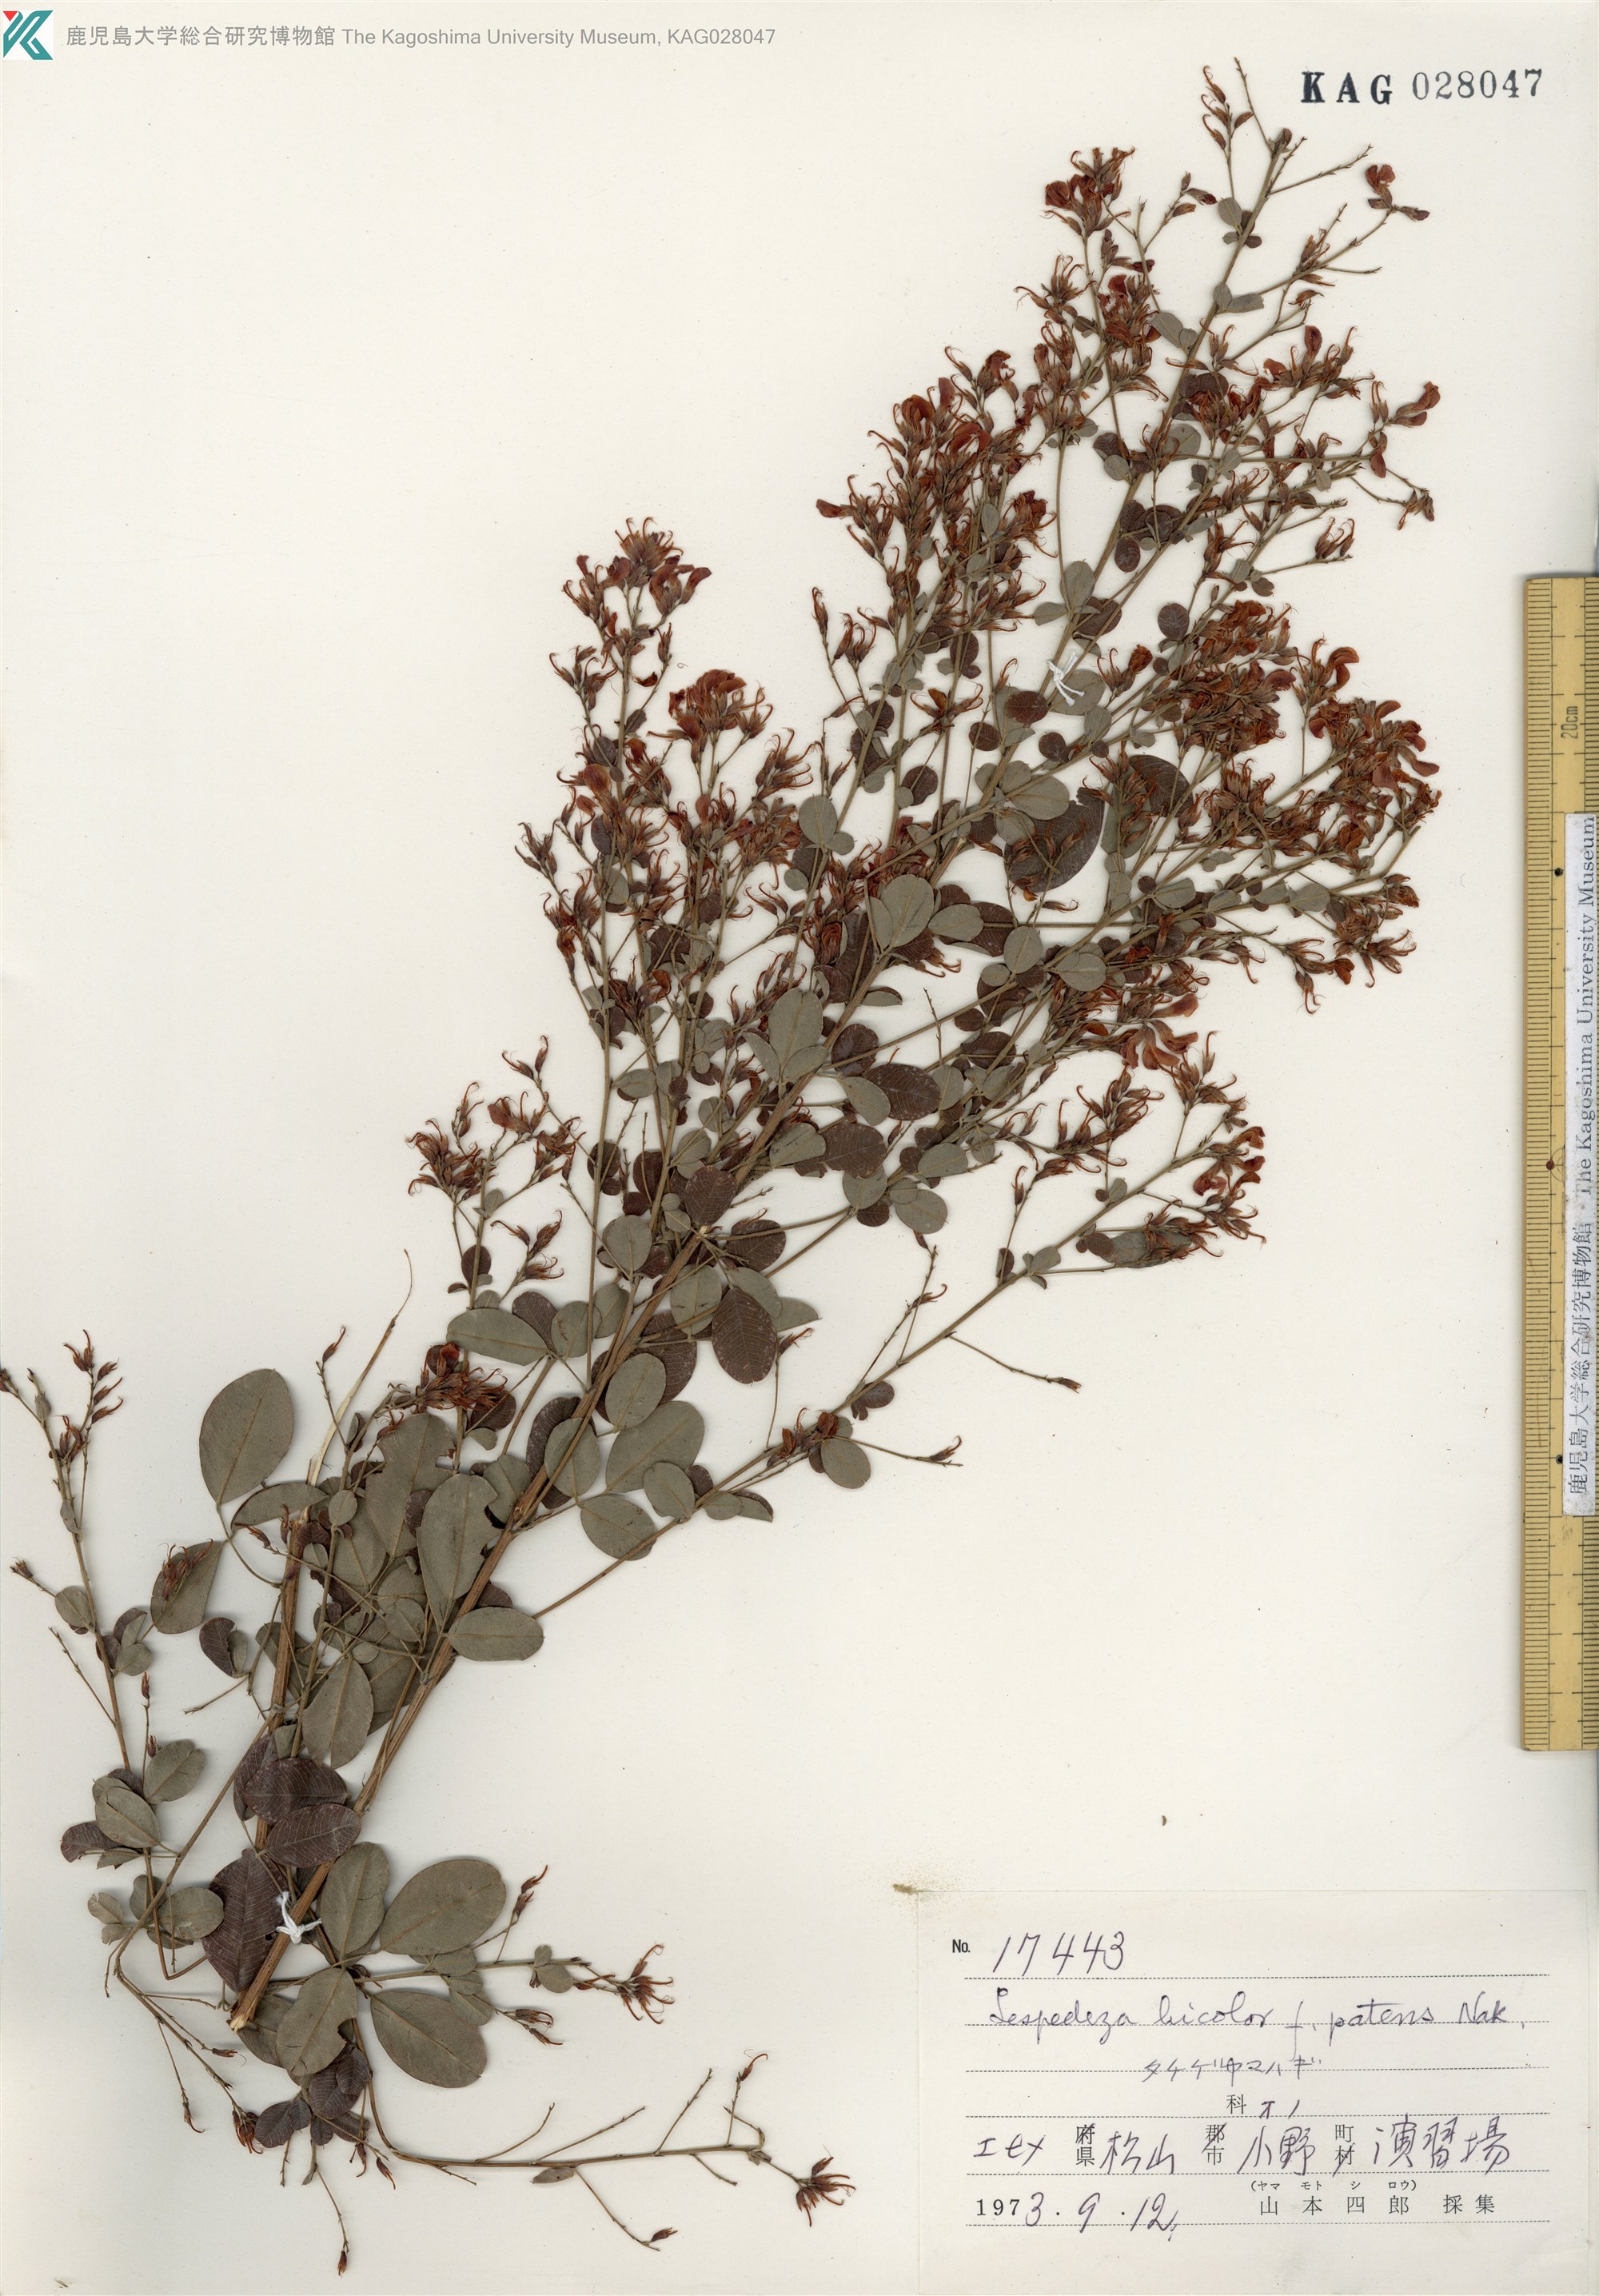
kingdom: Plantae
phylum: Tracheophyta
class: Magnoliopsida
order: Fabales
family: Fabaceae
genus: Lespedeza
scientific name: Lespedeza bicolor
